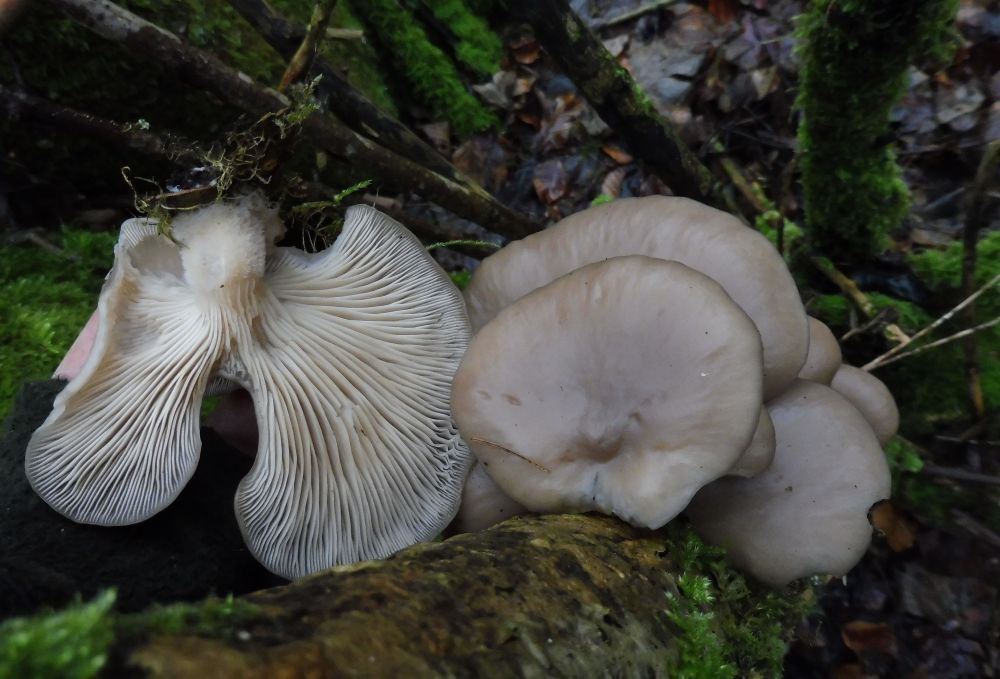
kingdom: Fungi
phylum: Basidiomycota
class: Agaricomycetes
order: Agaricales
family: Pleurotaceae
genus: Pleurotus
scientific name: Pleurotus ostreatus
